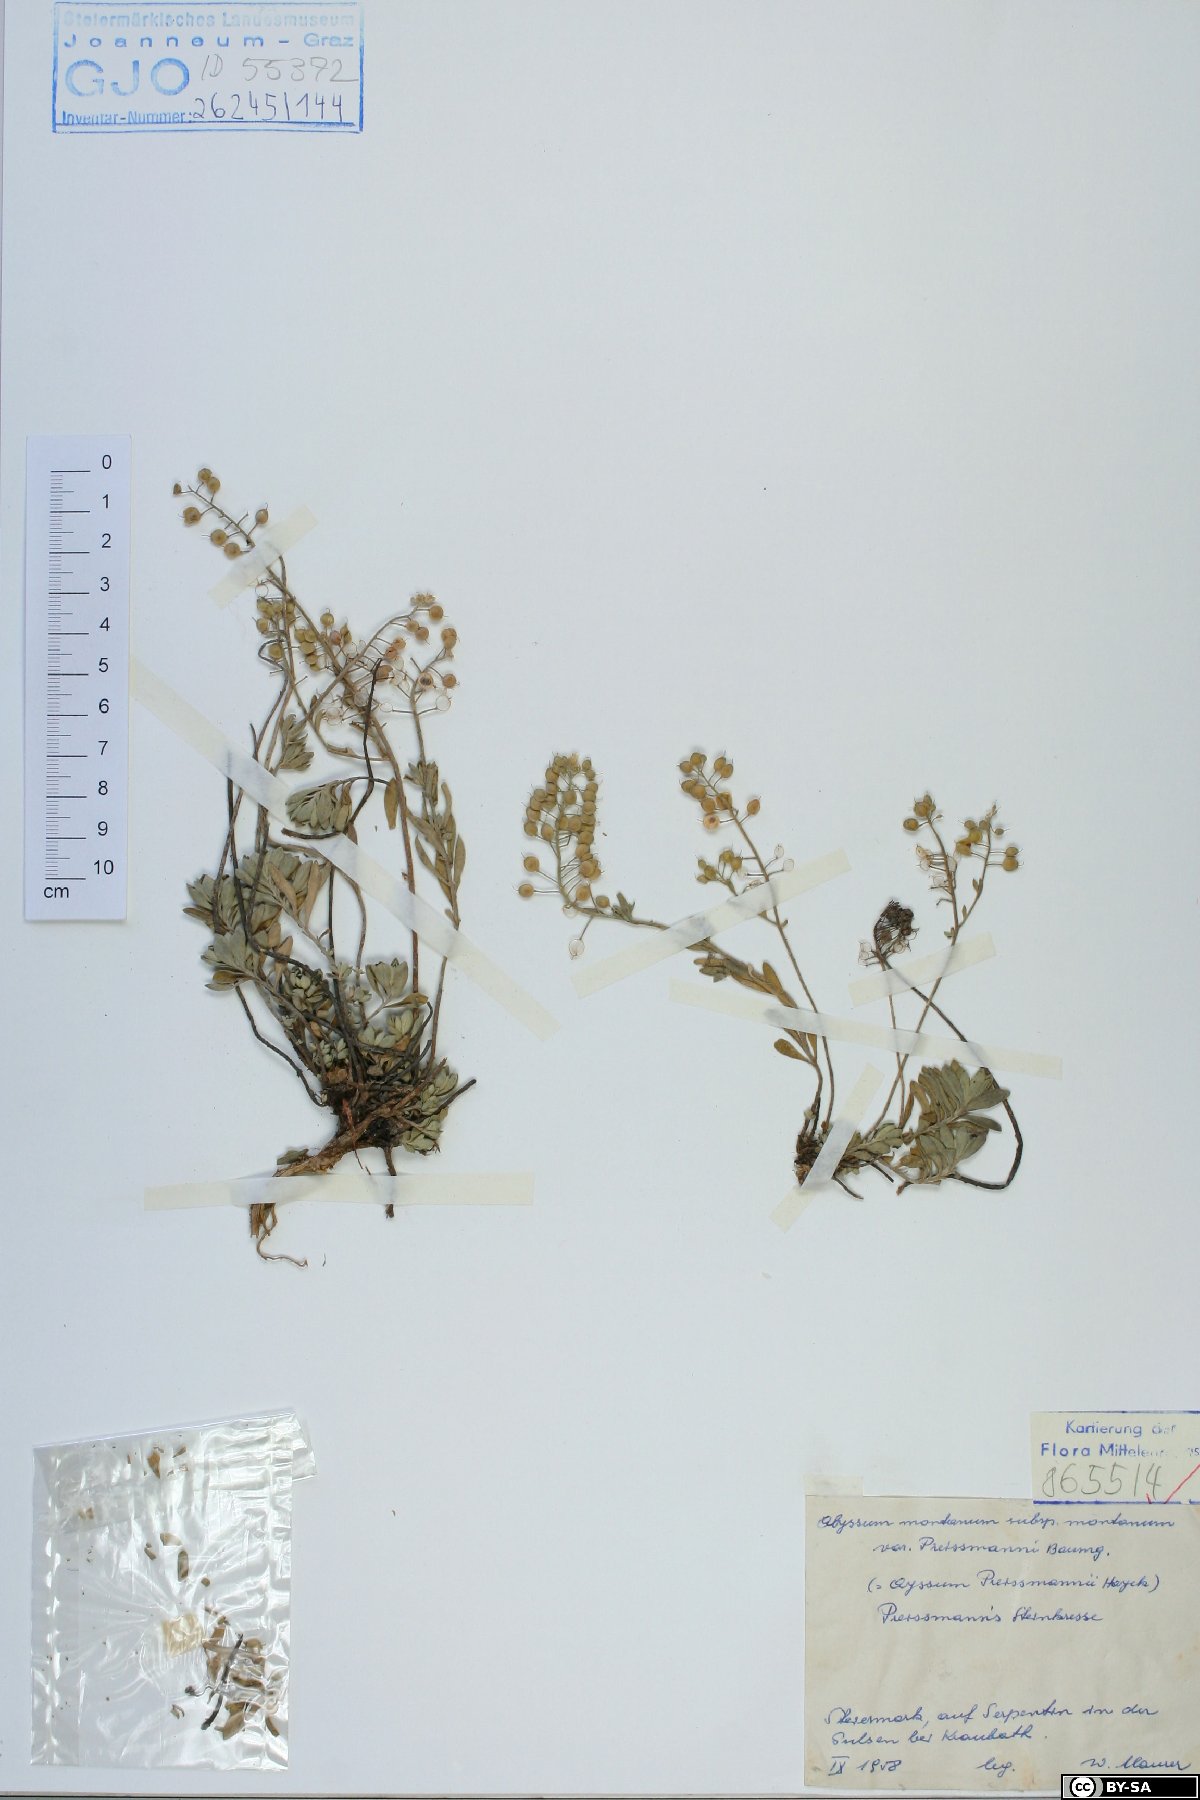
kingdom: Plantae
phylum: Tracheophyta
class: Magnoliopsida
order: Brassicales
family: Brassicaceae
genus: Alyssum
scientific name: Alyssum gmelinii
